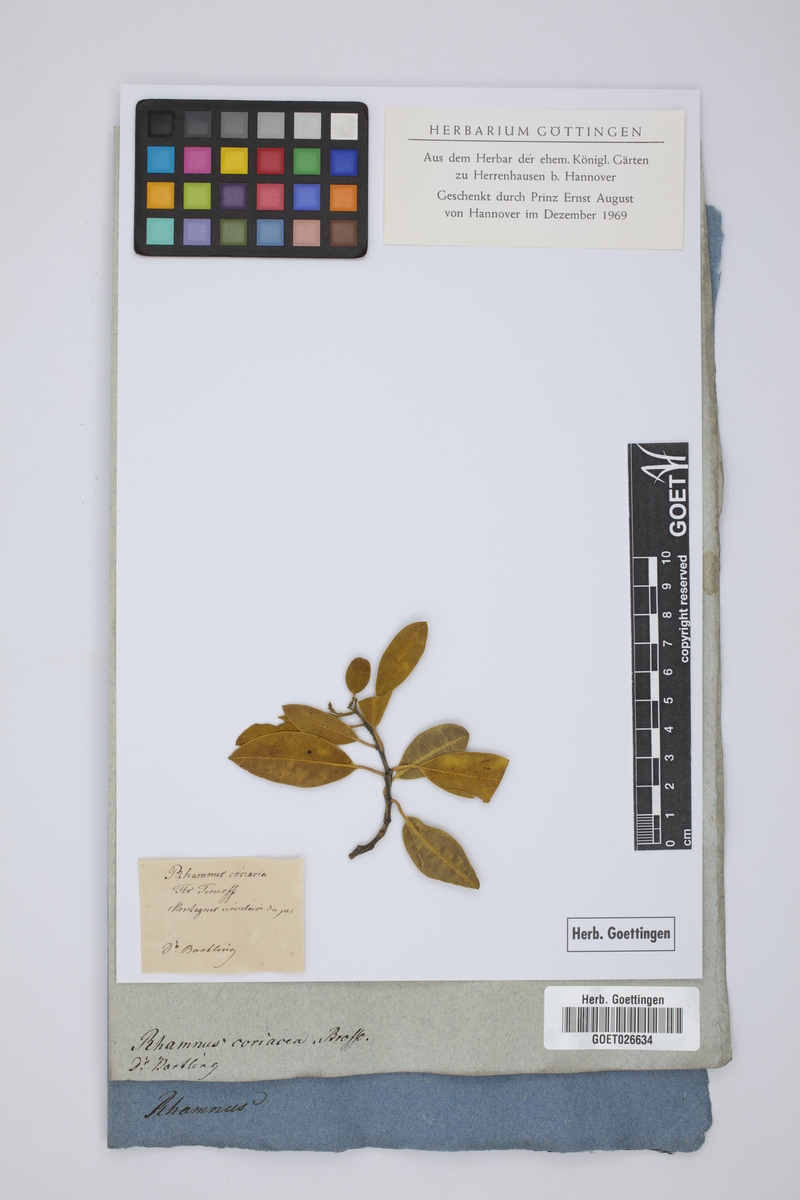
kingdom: Plantae
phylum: Tracheophyta
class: Magnoliopsida
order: Rosales
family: Rhamnaceae
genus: Rhamnus
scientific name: Rhamnus integrifolia
